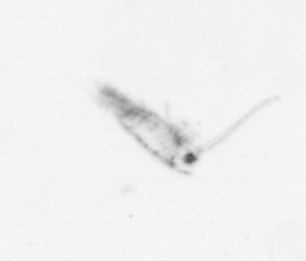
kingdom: Animalia
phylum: Arthropoda
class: Maxillopoda
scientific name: Maxillopoda
